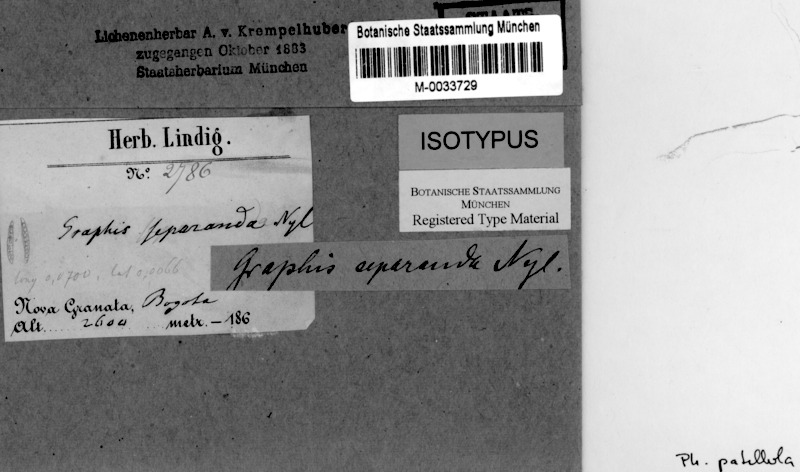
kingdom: Fungi
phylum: Ascomycota
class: Lecanoromycetes
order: Ostropales
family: Graphidaceae
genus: Leiorreuma
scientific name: Leiorreuma patellulum
